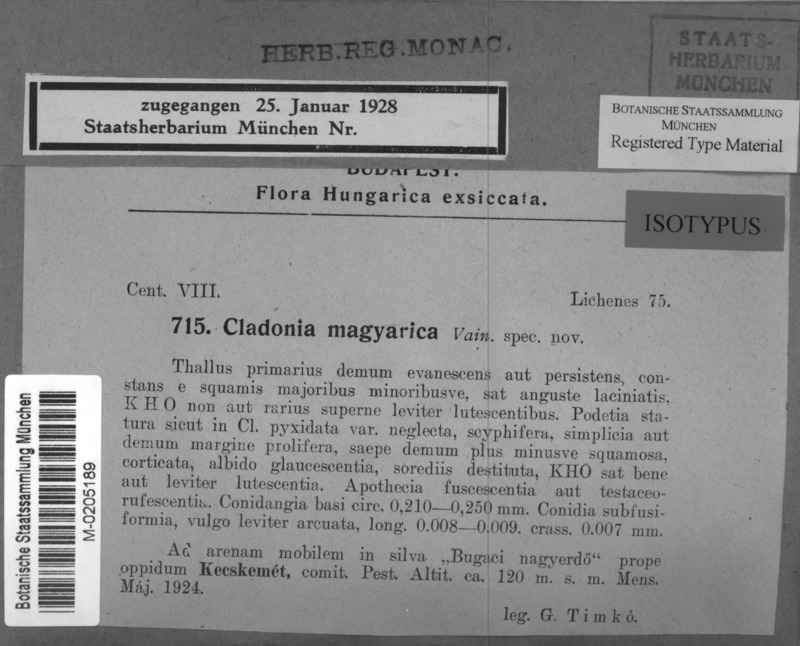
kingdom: Fungi
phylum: Ascomycota
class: Lecanoromycetes
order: Lecanorales
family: Cladoniaceae
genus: Cladonia
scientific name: Cladonia magyarica
